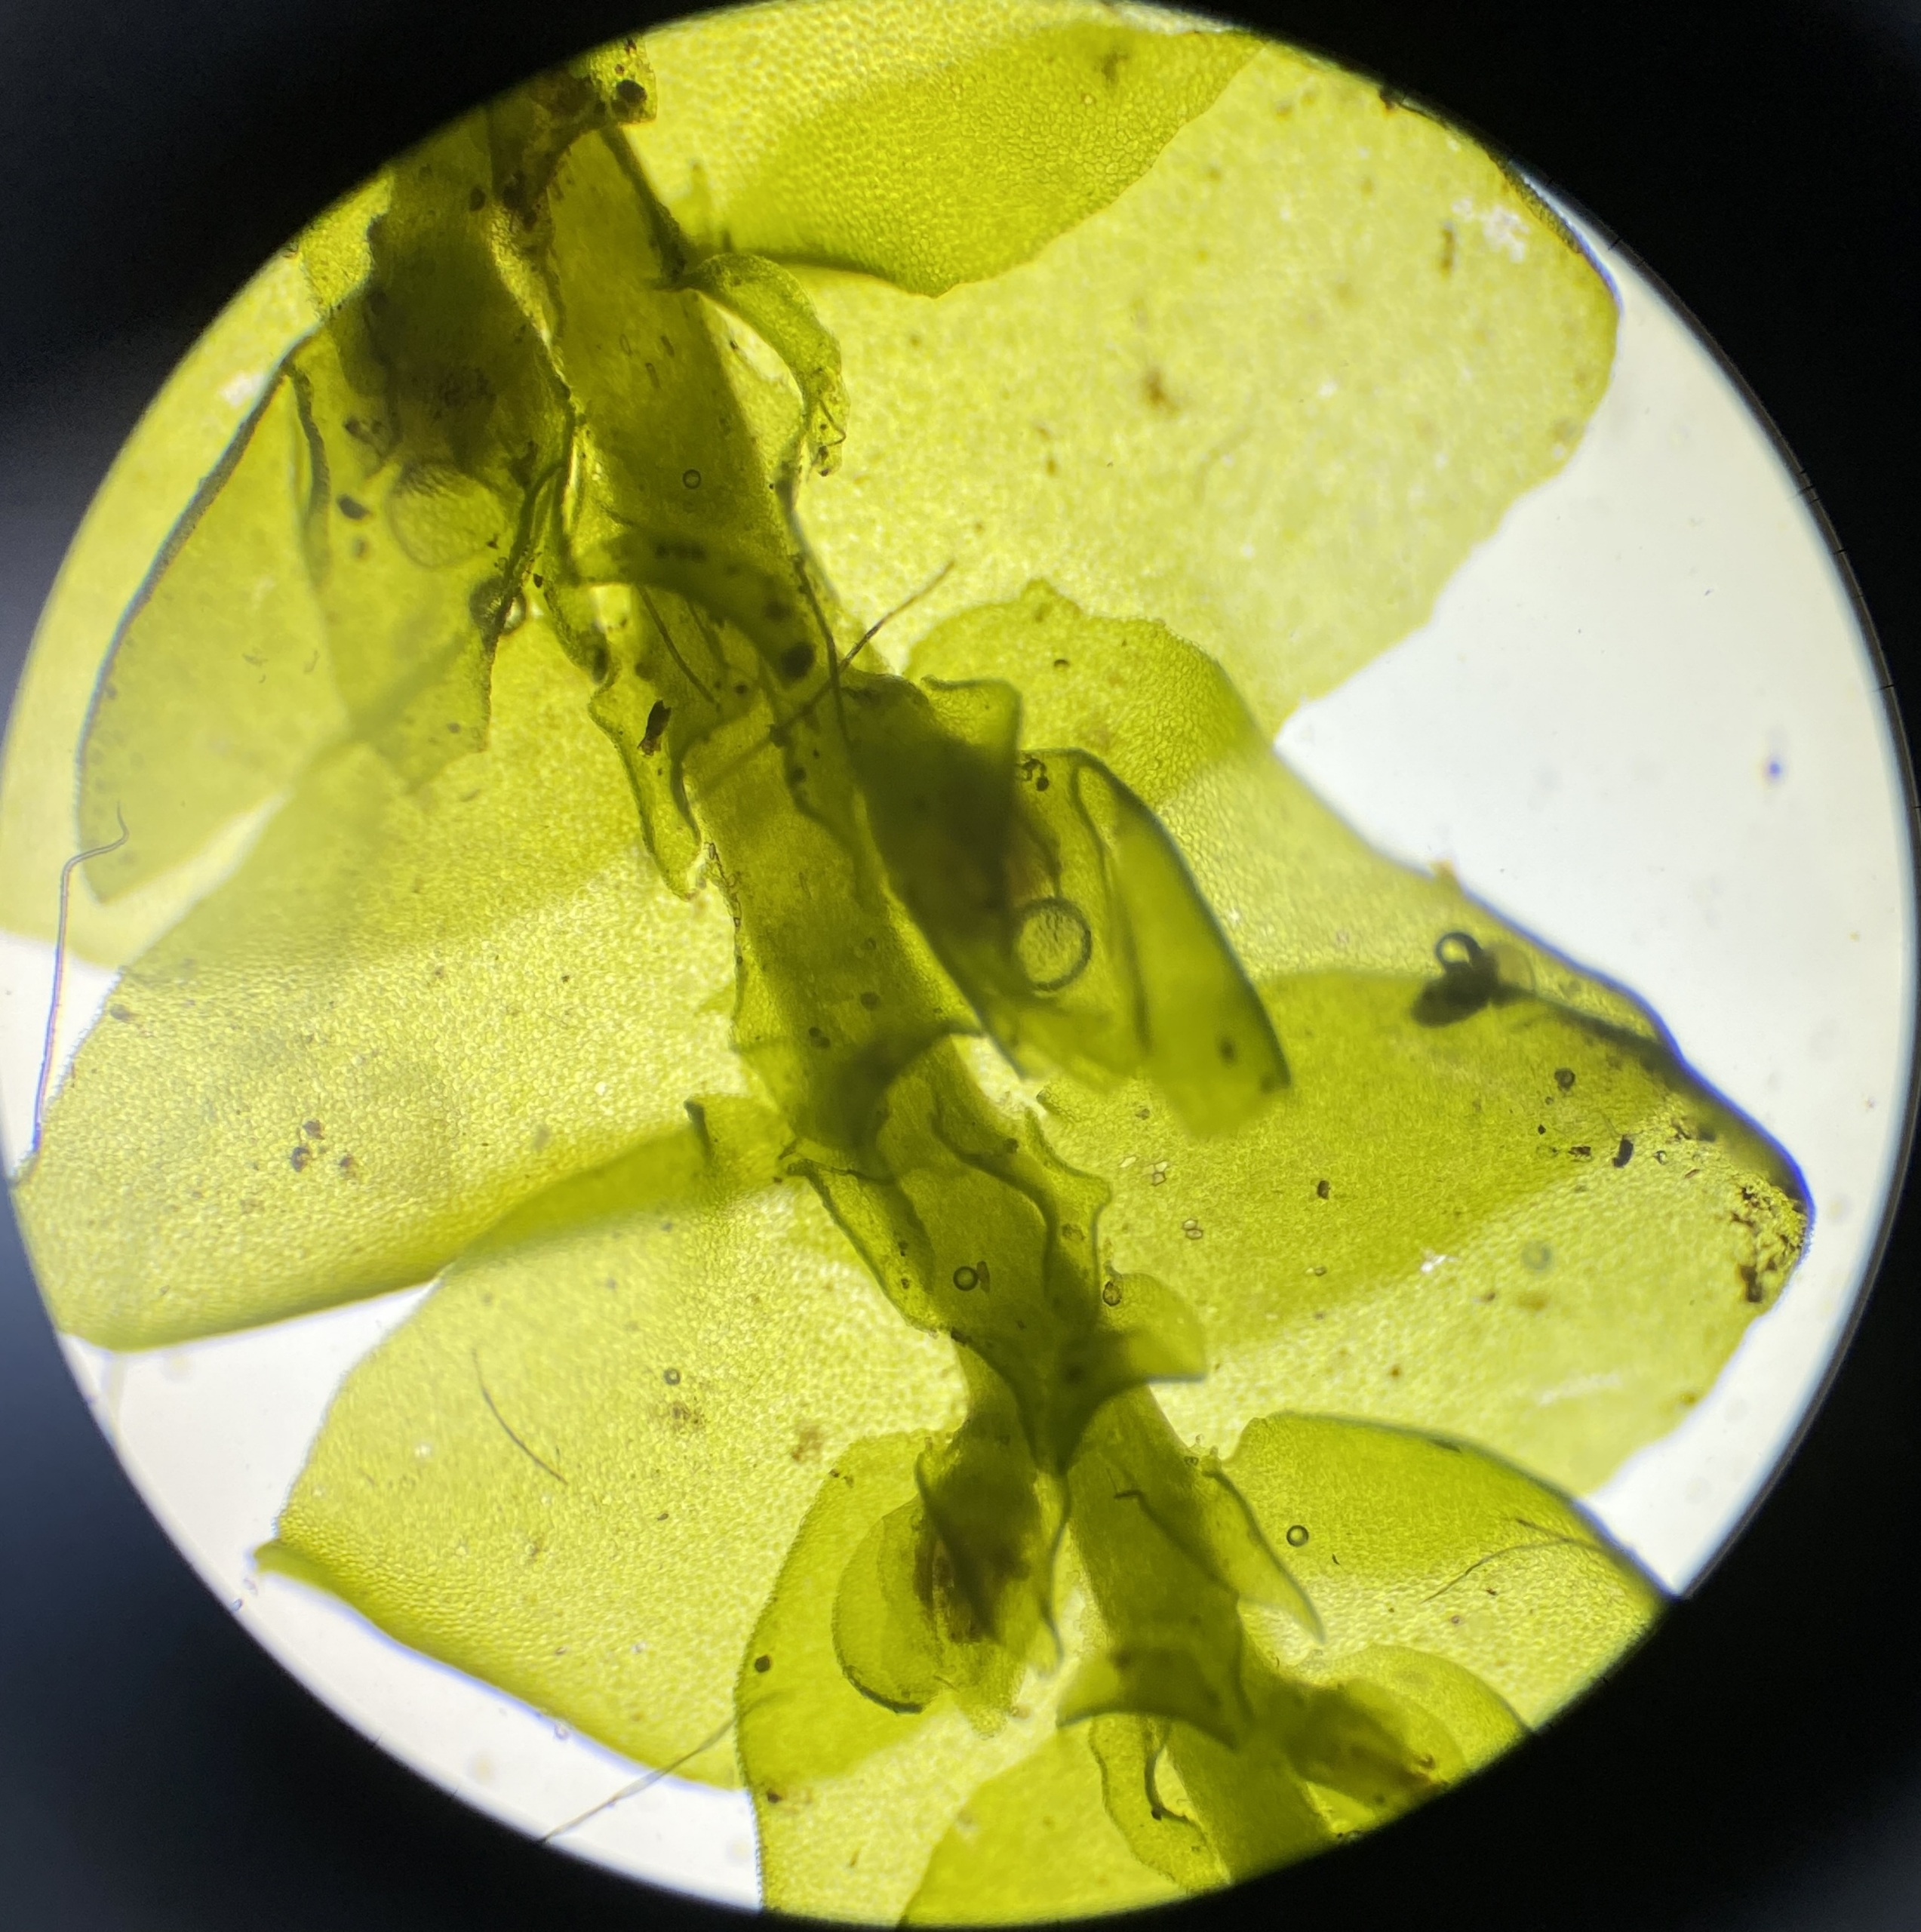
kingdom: Plantae
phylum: Marchantiophyta
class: Jungermanniopsida
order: Porellales
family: Porellaceae
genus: Porella
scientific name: Porella cordaeana
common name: Bæk-skælryg
